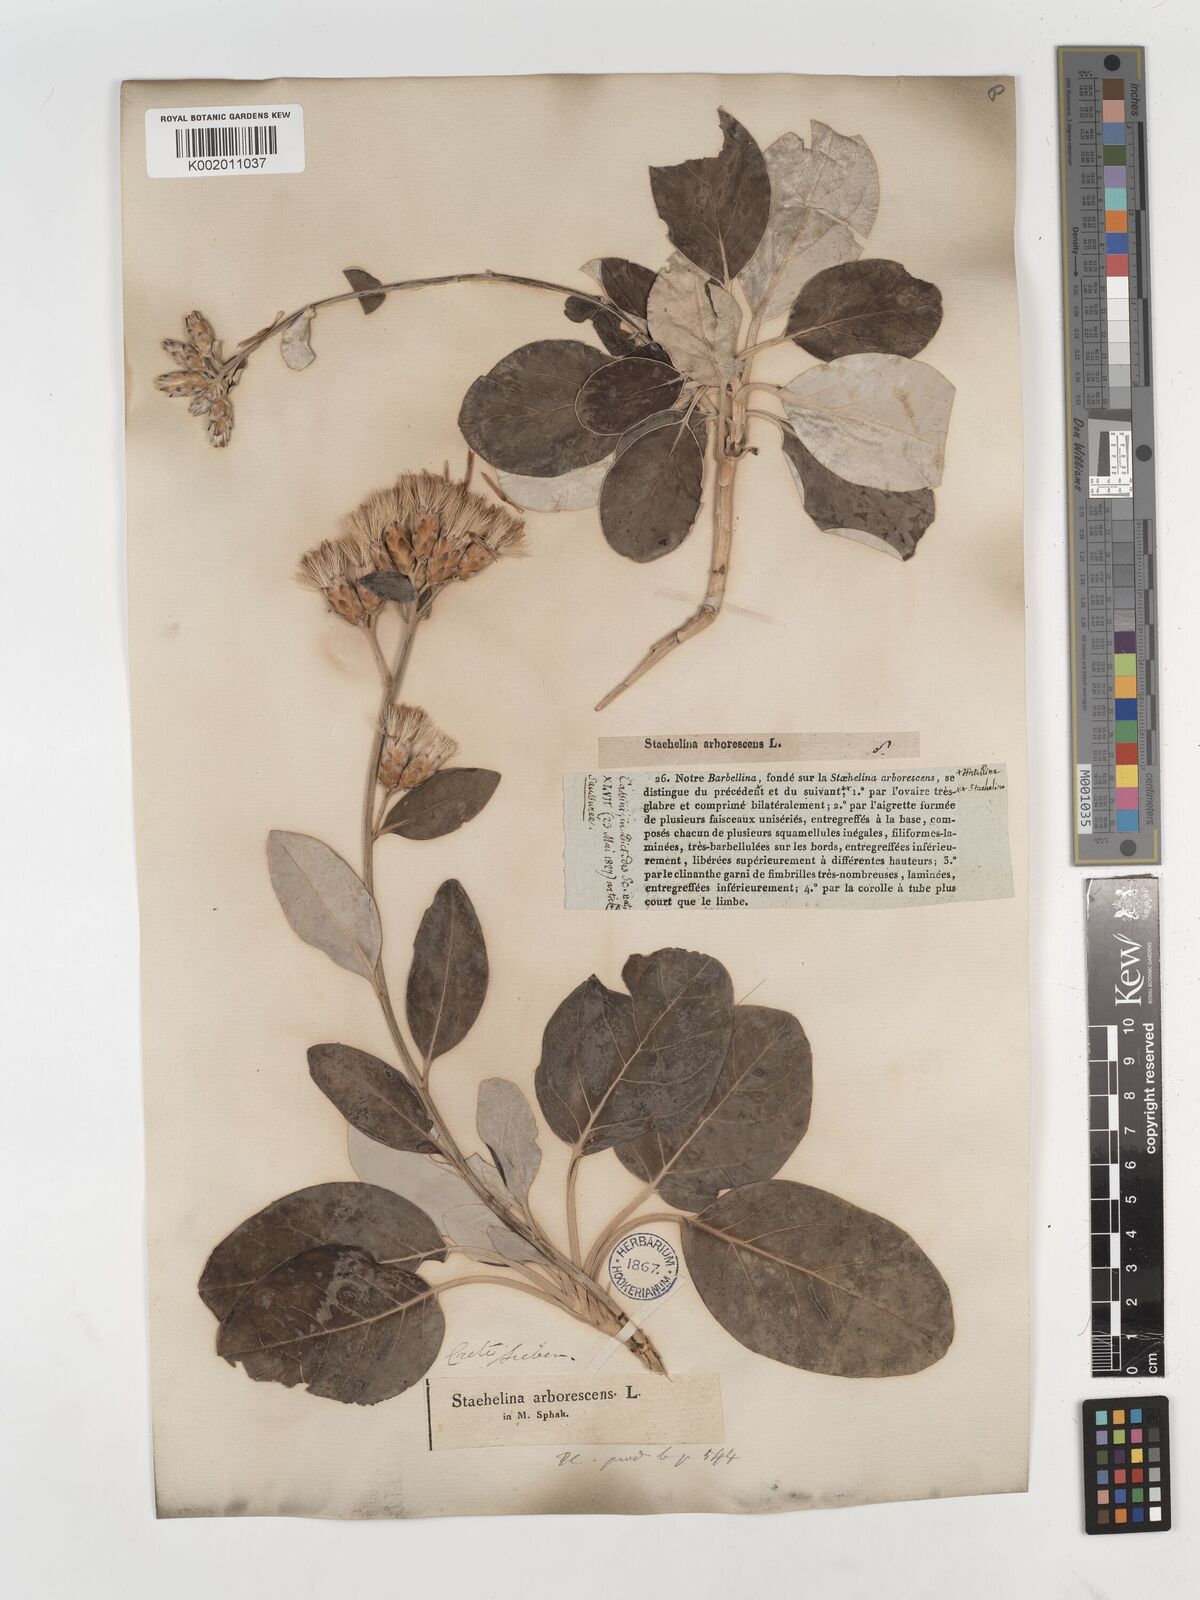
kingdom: Plantae
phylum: Tracheophyta
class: Magnoliopsida
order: Asterales
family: Asteraceae
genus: Staehelina
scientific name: Staehelina petiolata
